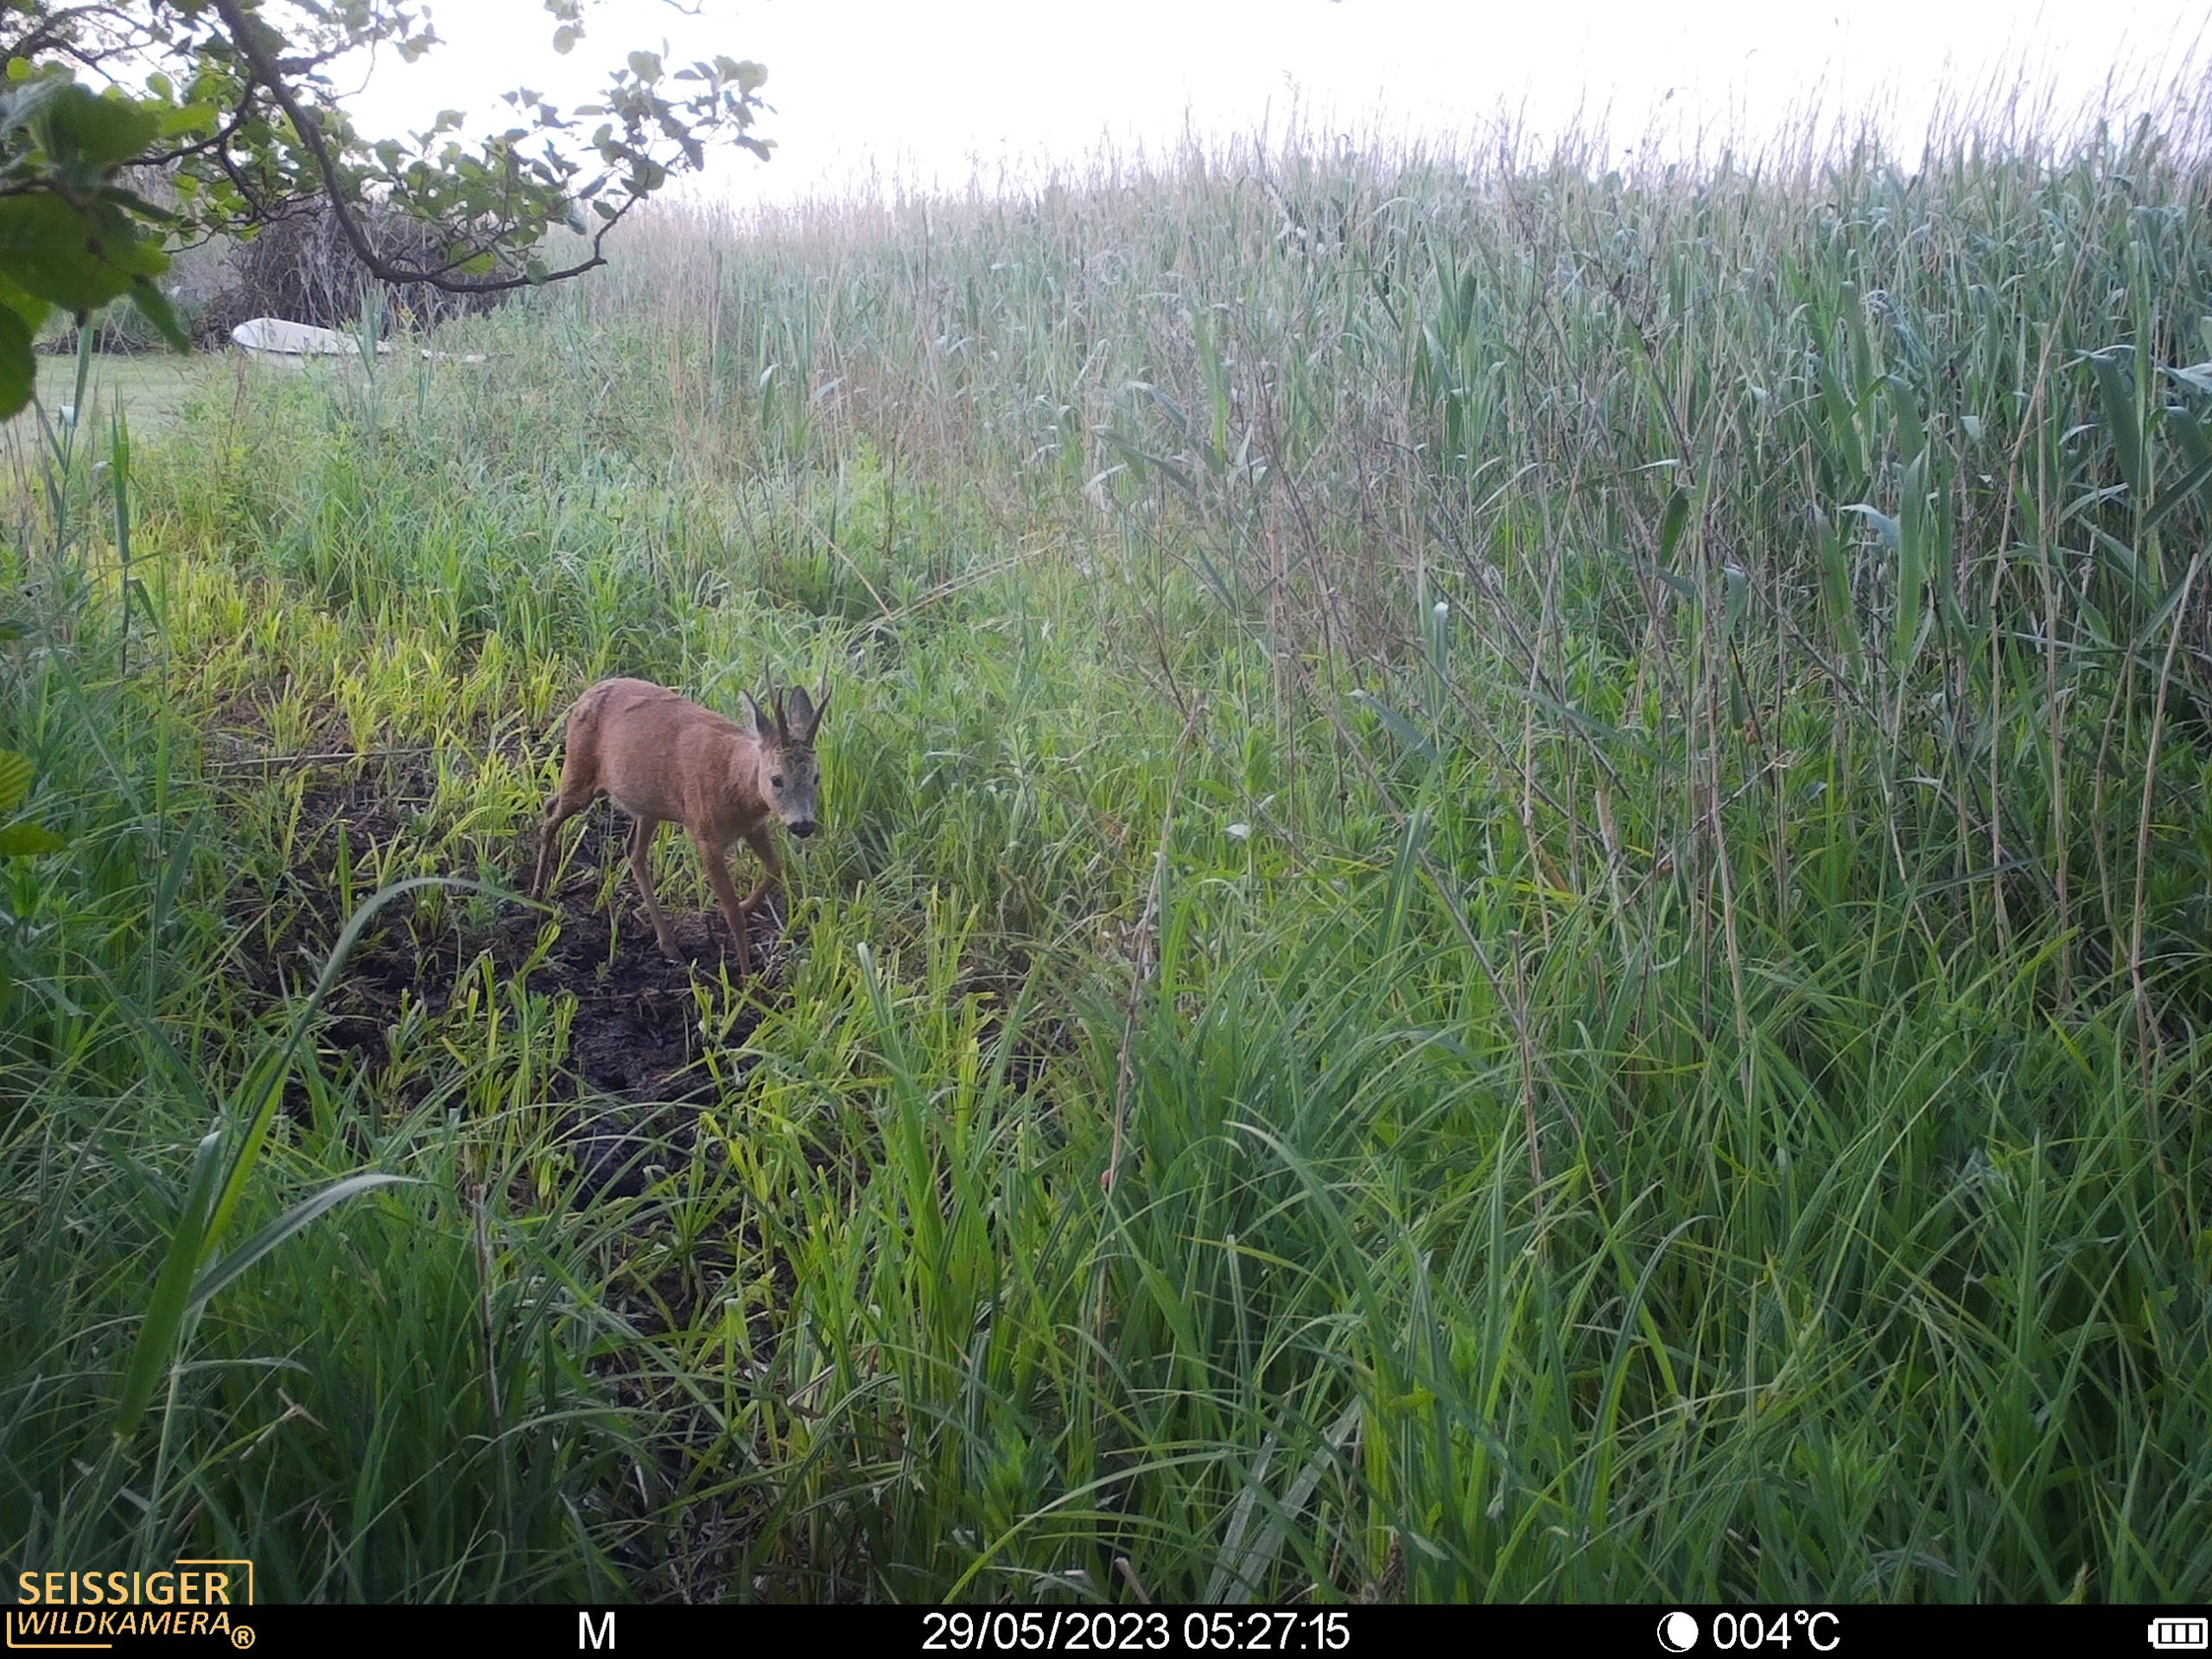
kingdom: Animalia
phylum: Chordata
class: Mammalia
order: Artiodactyla
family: Cervidae
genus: Capreolus
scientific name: Capreolus capreolus
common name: Rådyr
